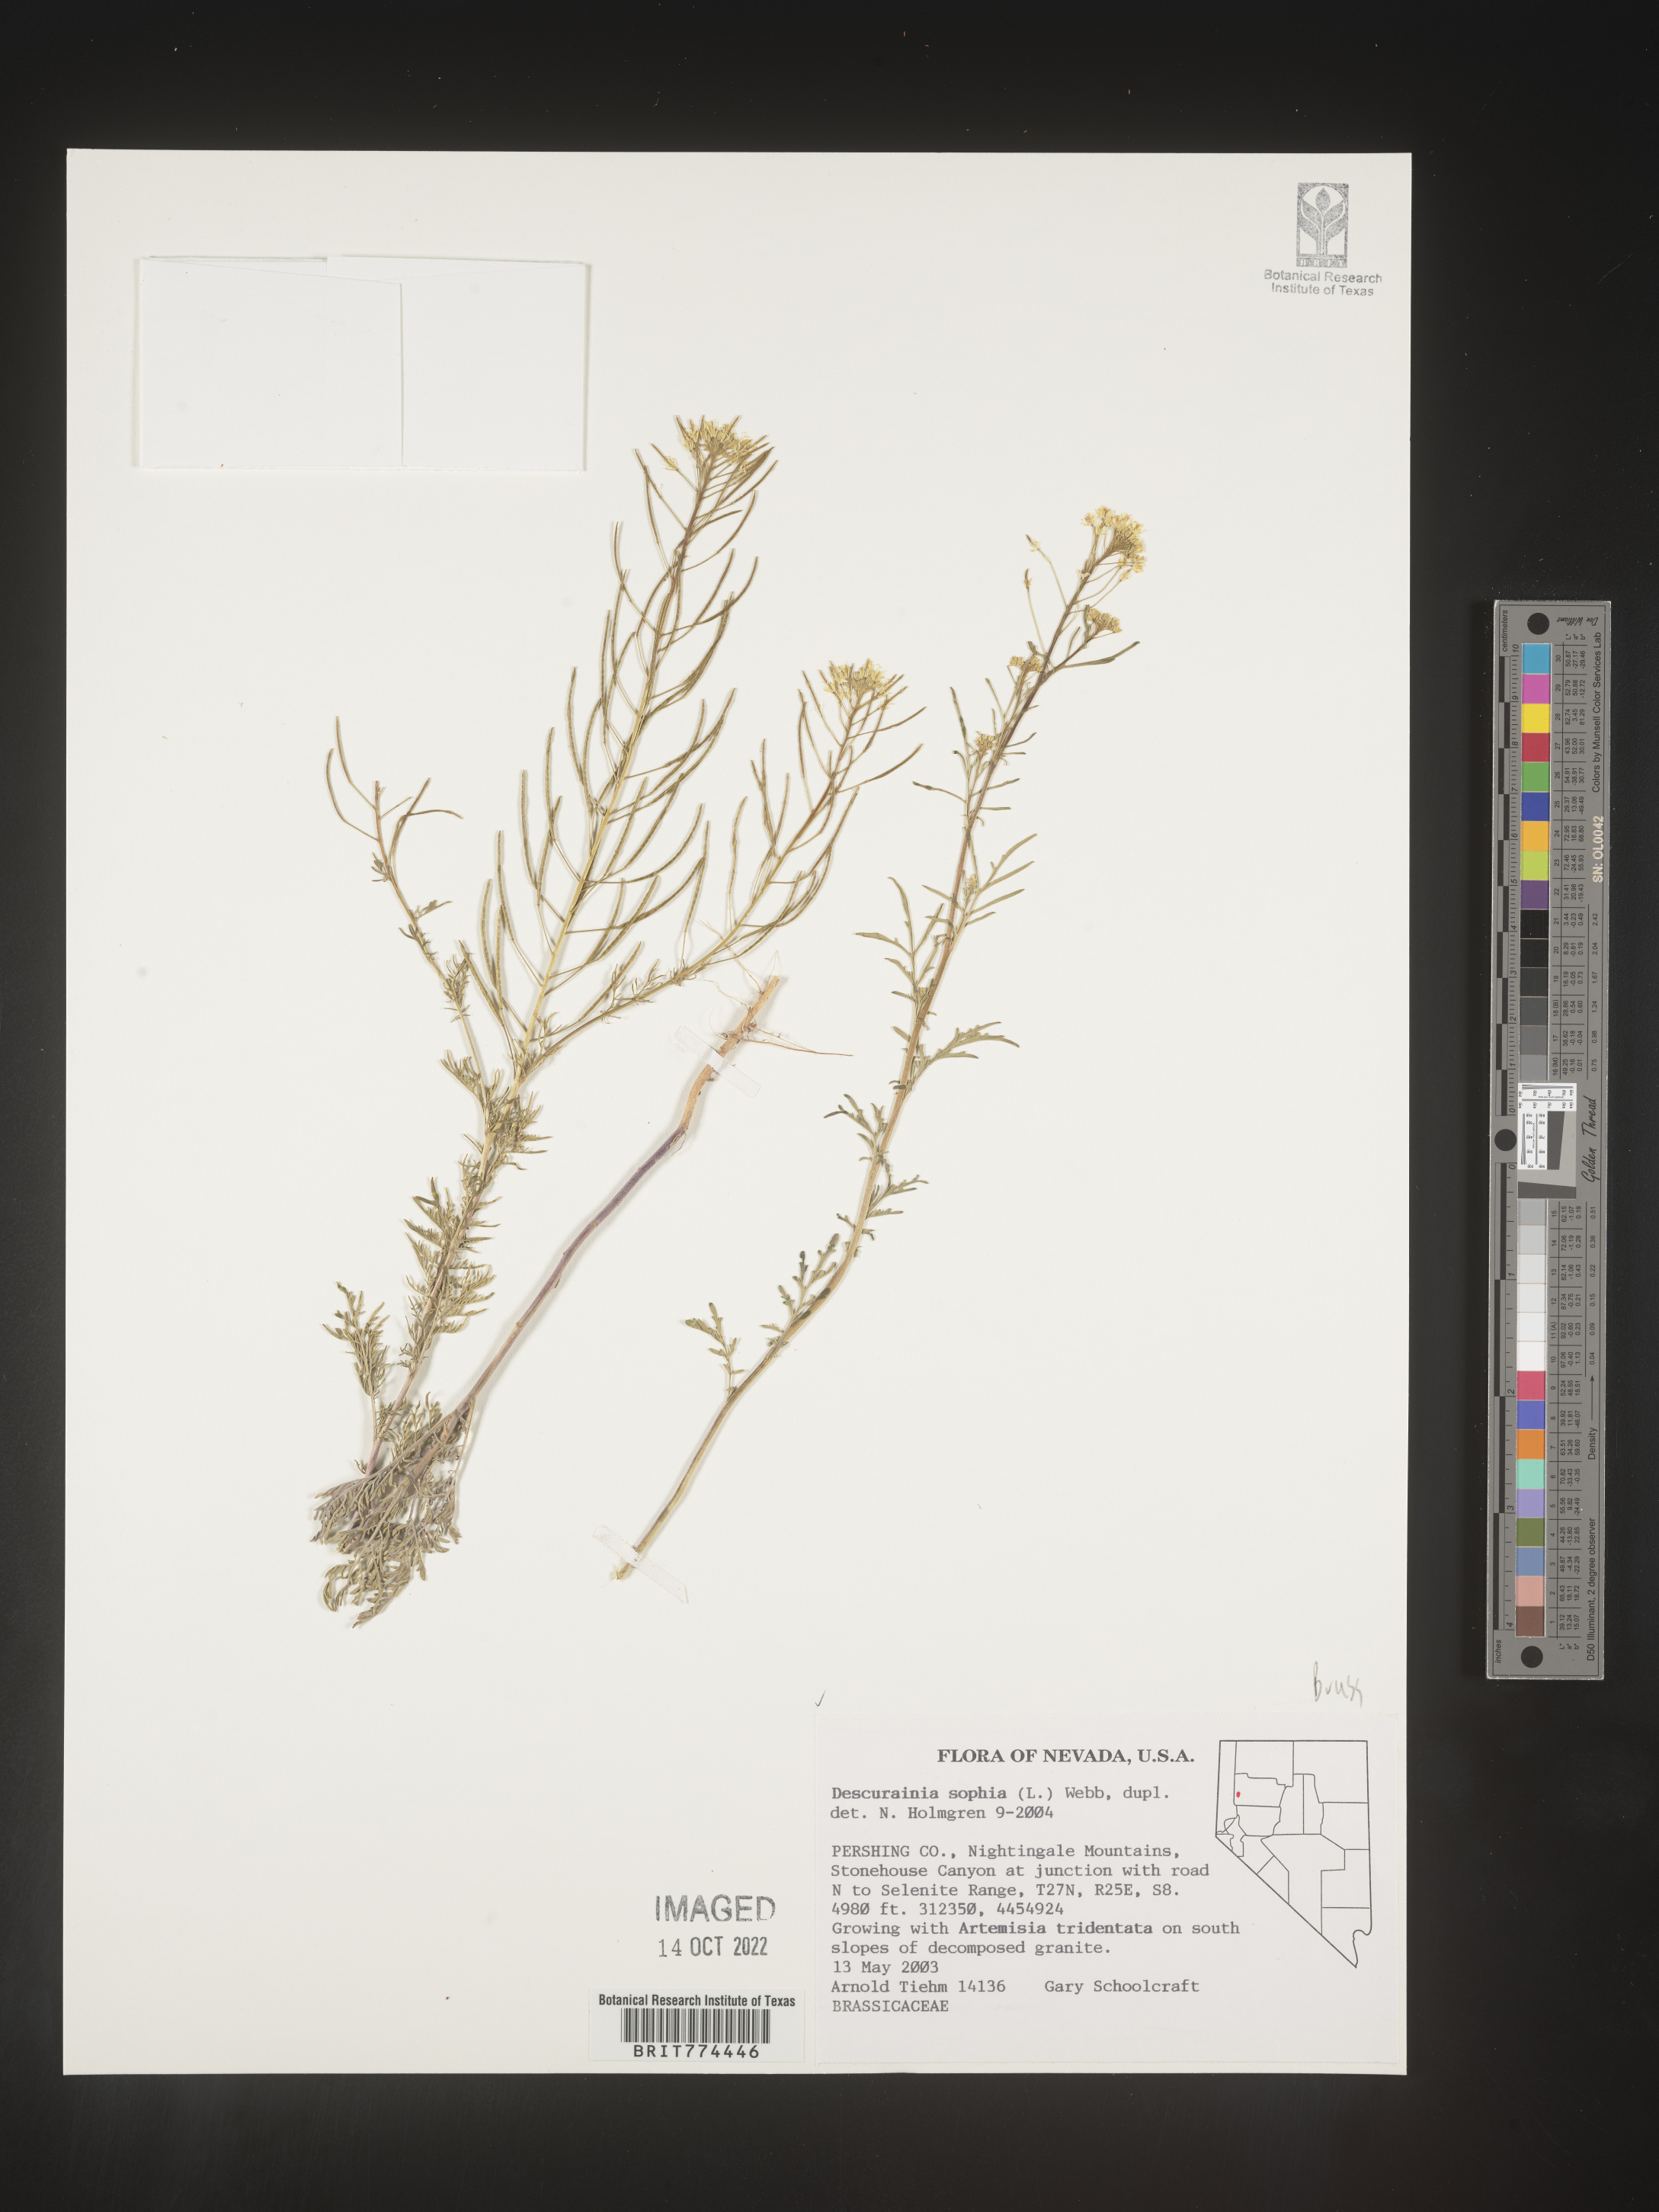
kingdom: Plantae
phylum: Tracheophyta
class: Magnoliopsida
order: Brassicales
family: Brassicaceae
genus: Descurainia
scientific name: Descurainia sophia
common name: Flixweed
